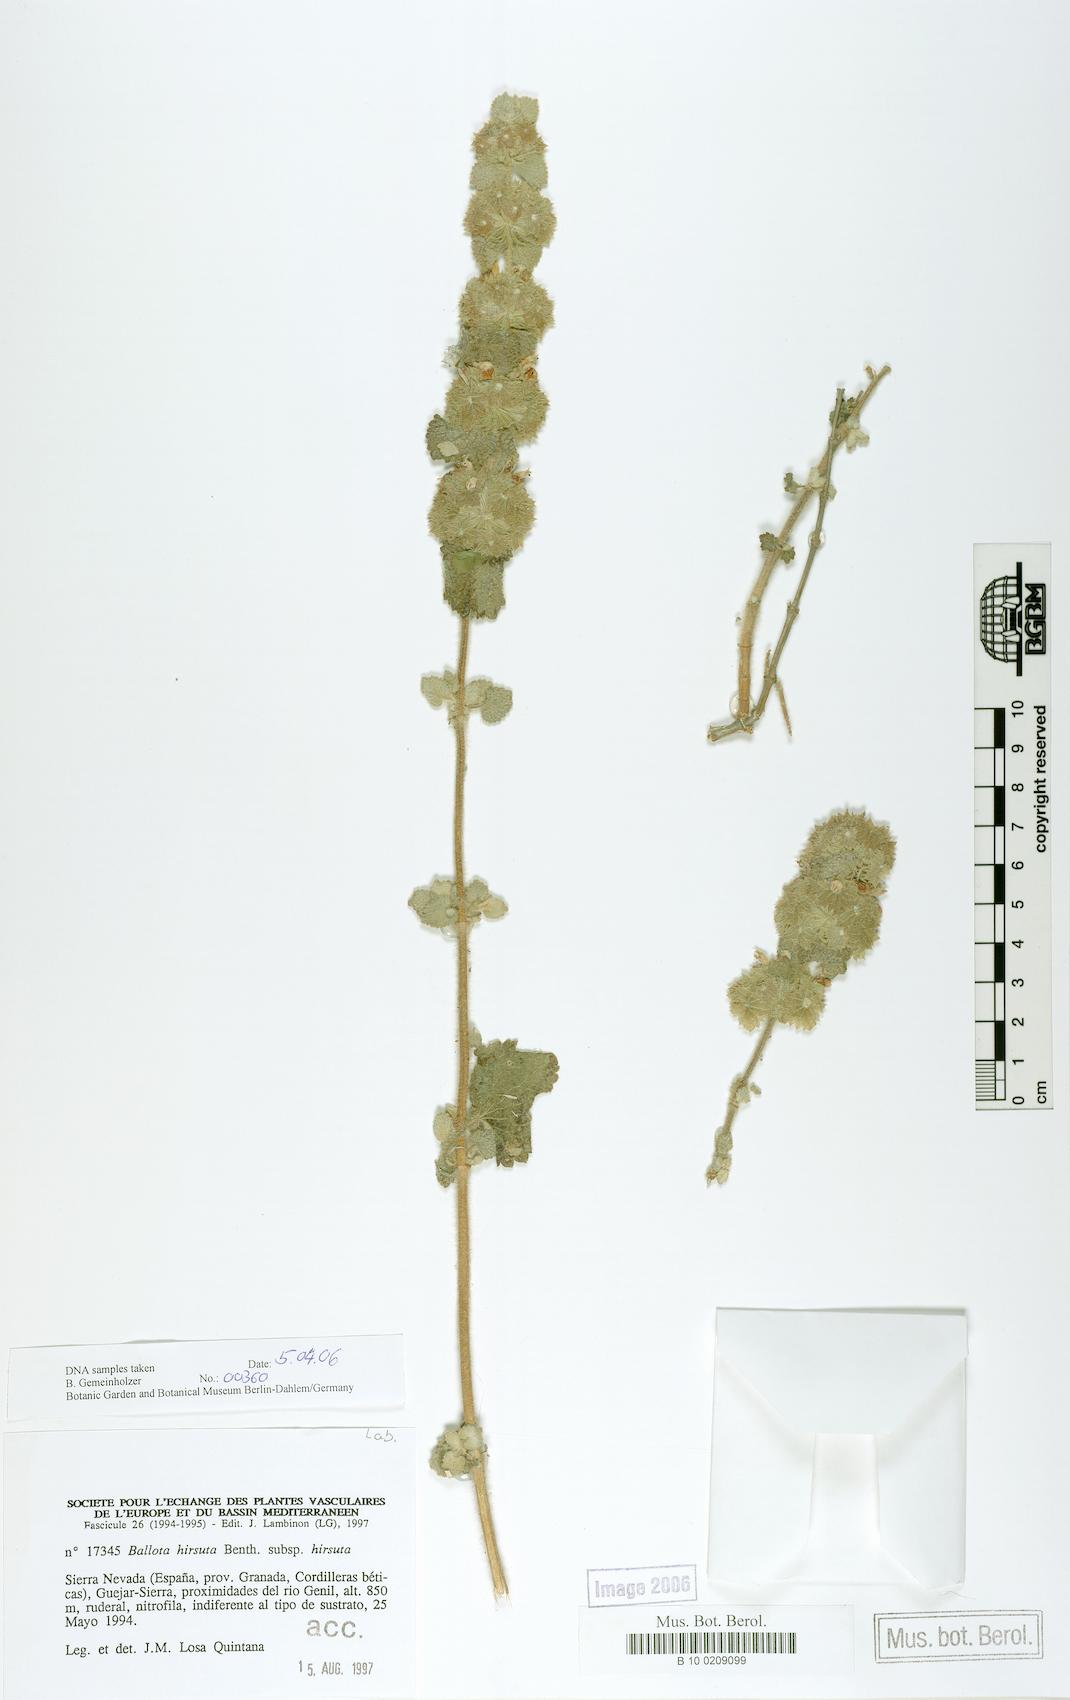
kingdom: Plantae
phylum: Tracheophyta
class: Magnoliopsida
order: Lamiales
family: Lamiaceae
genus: Pseudodictamnus
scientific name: Pseudodictamnus hirsutus
